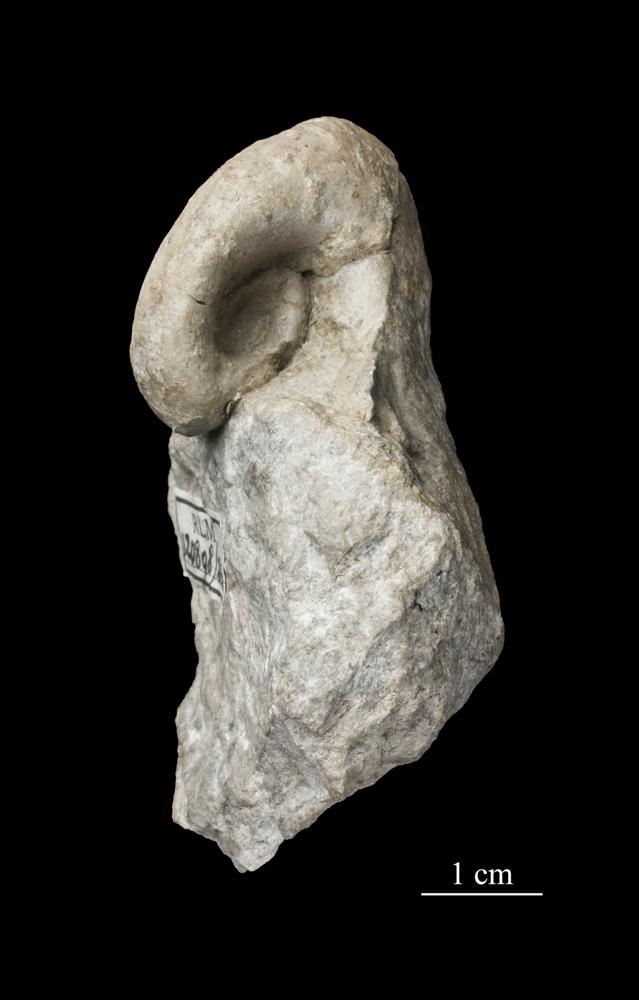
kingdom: Animalia
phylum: Mollusca
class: Gastropoda
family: Bellerophontidae
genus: Bellerophon
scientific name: Bellerophon
